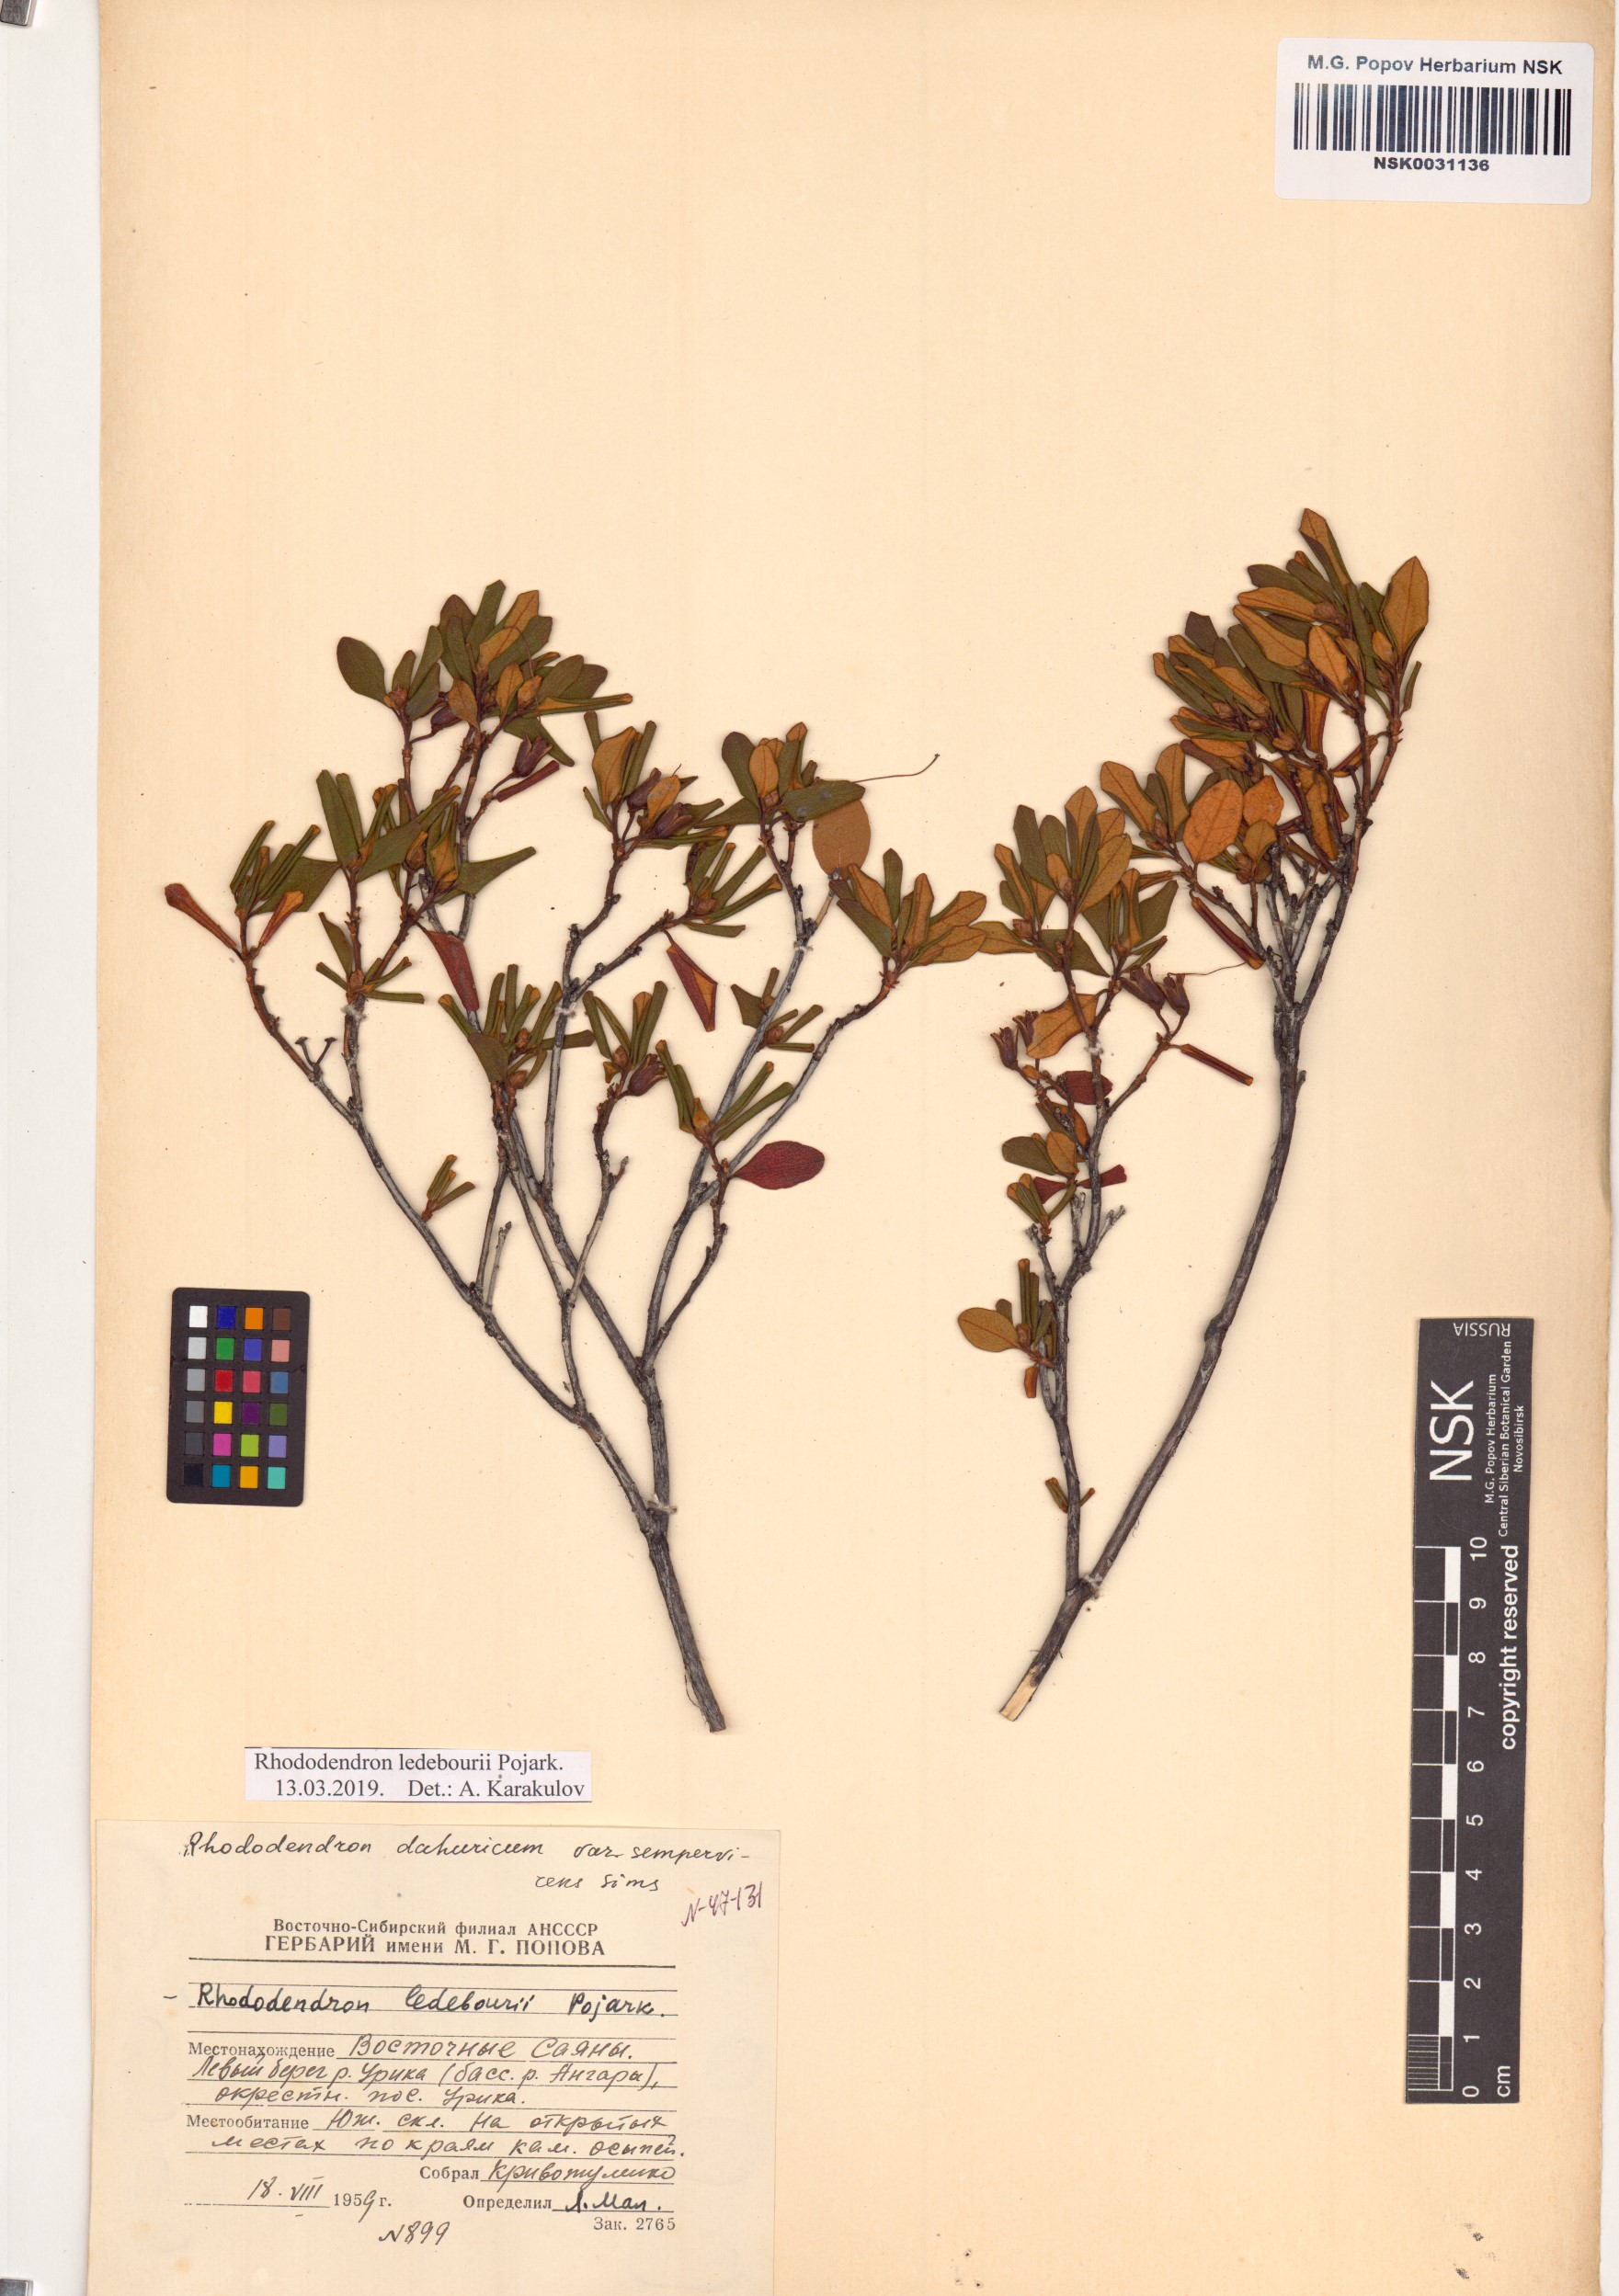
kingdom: Plantae
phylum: Tracheophyta
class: Magnoliopsida
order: Ericales
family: Ericaceae
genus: Rhododendron
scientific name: Rhododendron dauricum
